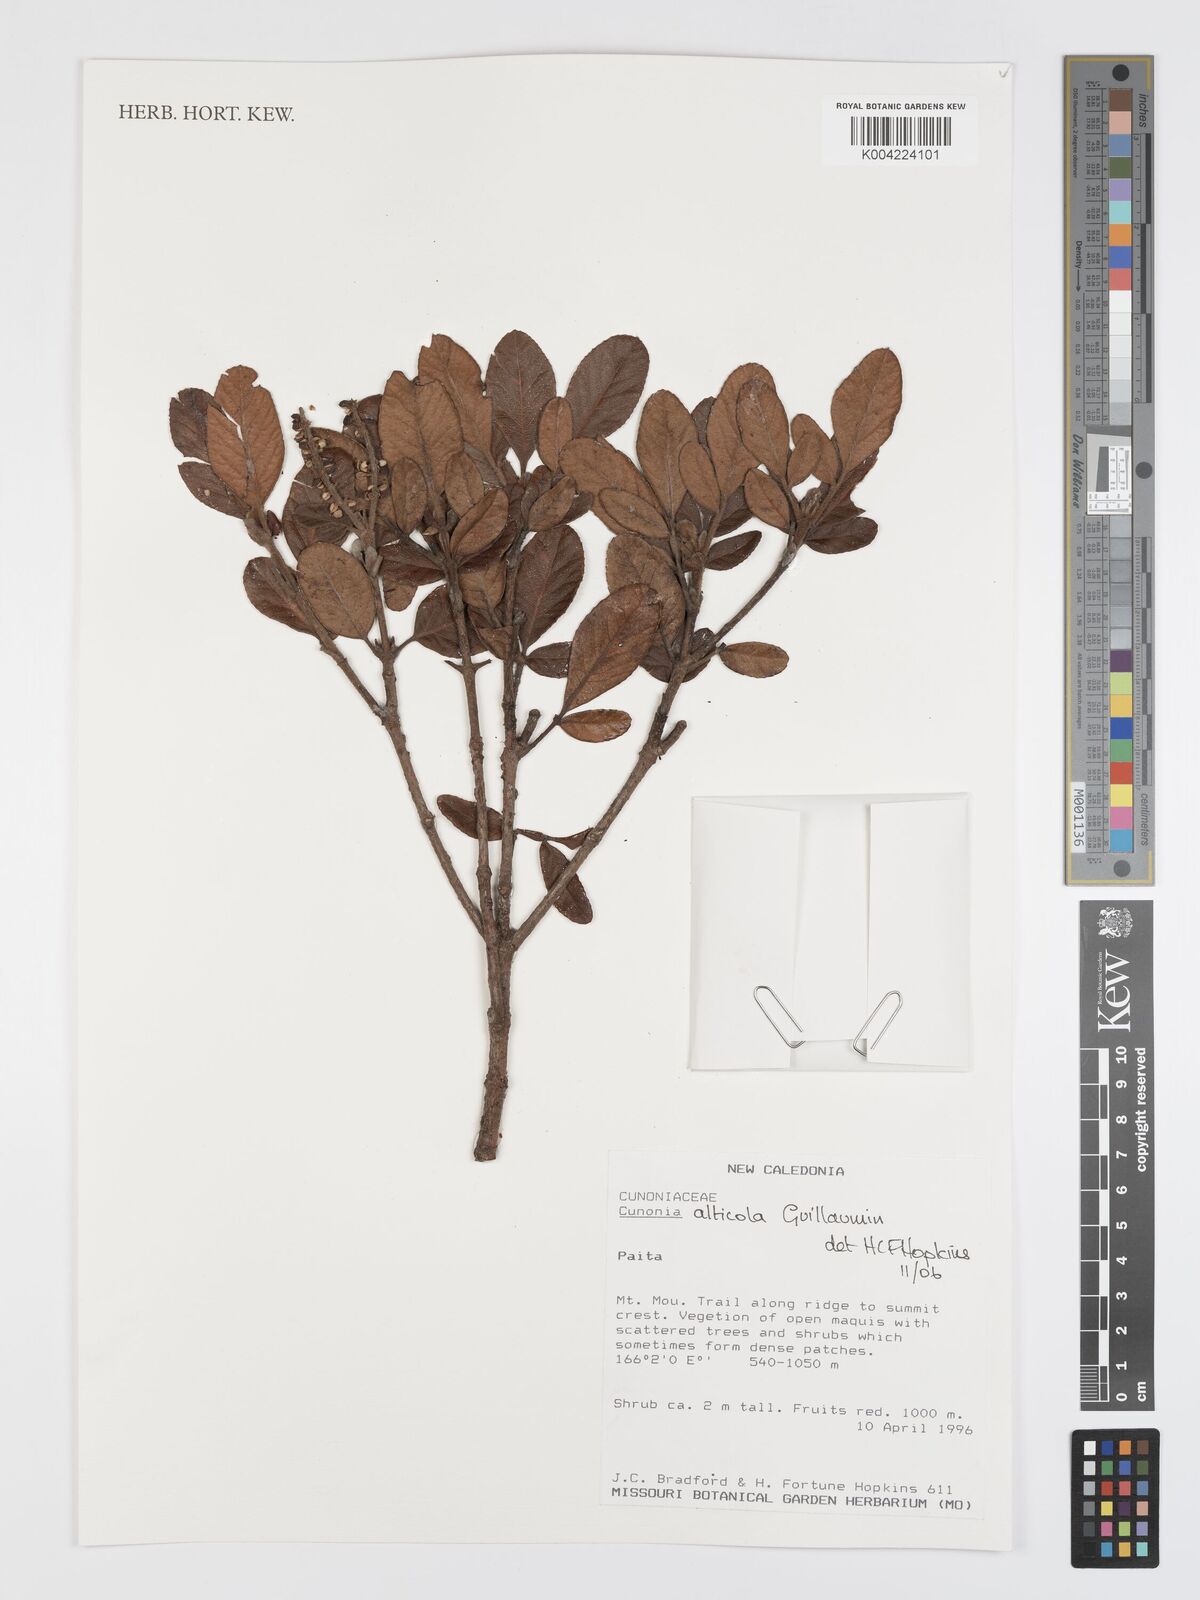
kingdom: Plantae
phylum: Tracheophyta
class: Magnoliopsida
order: Oxalidales
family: Cunoniaceae
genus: Cunonia
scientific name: Cunonia alticola
